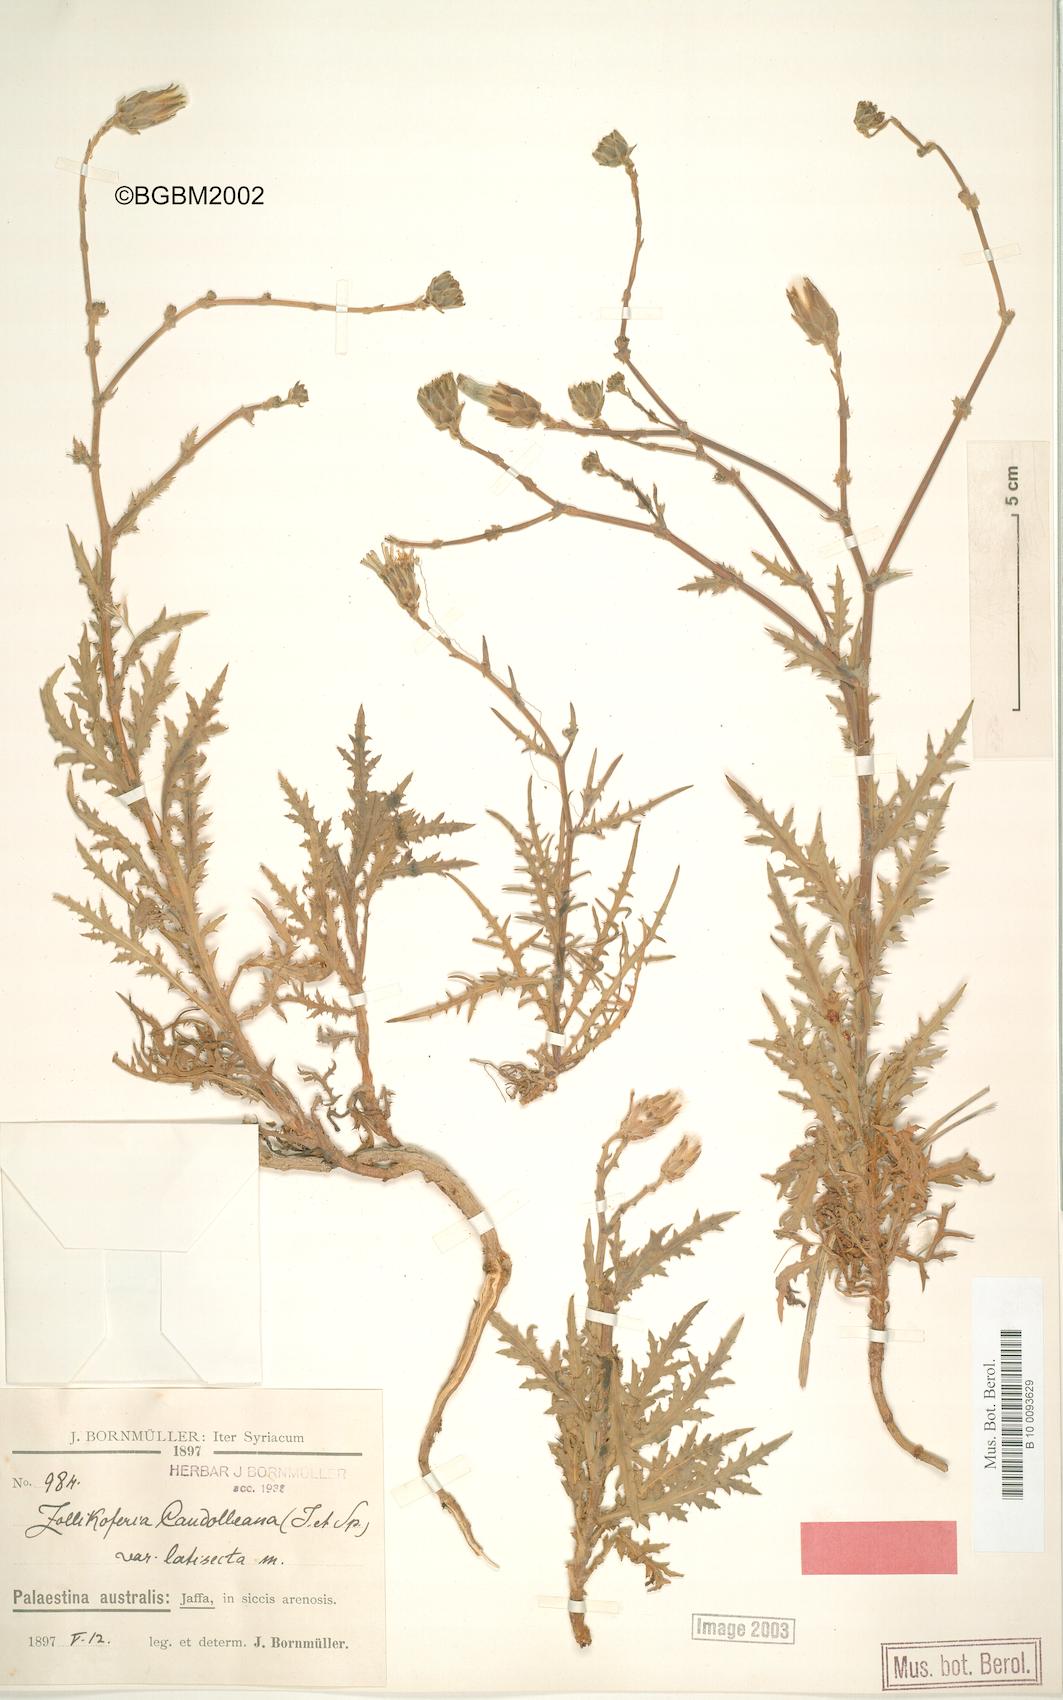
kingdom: Plantae
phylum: Tracheophyta
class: Magnoliopsida
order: Asterales
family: Asteraceae
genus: Launaea
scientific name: Launaea fragilis
